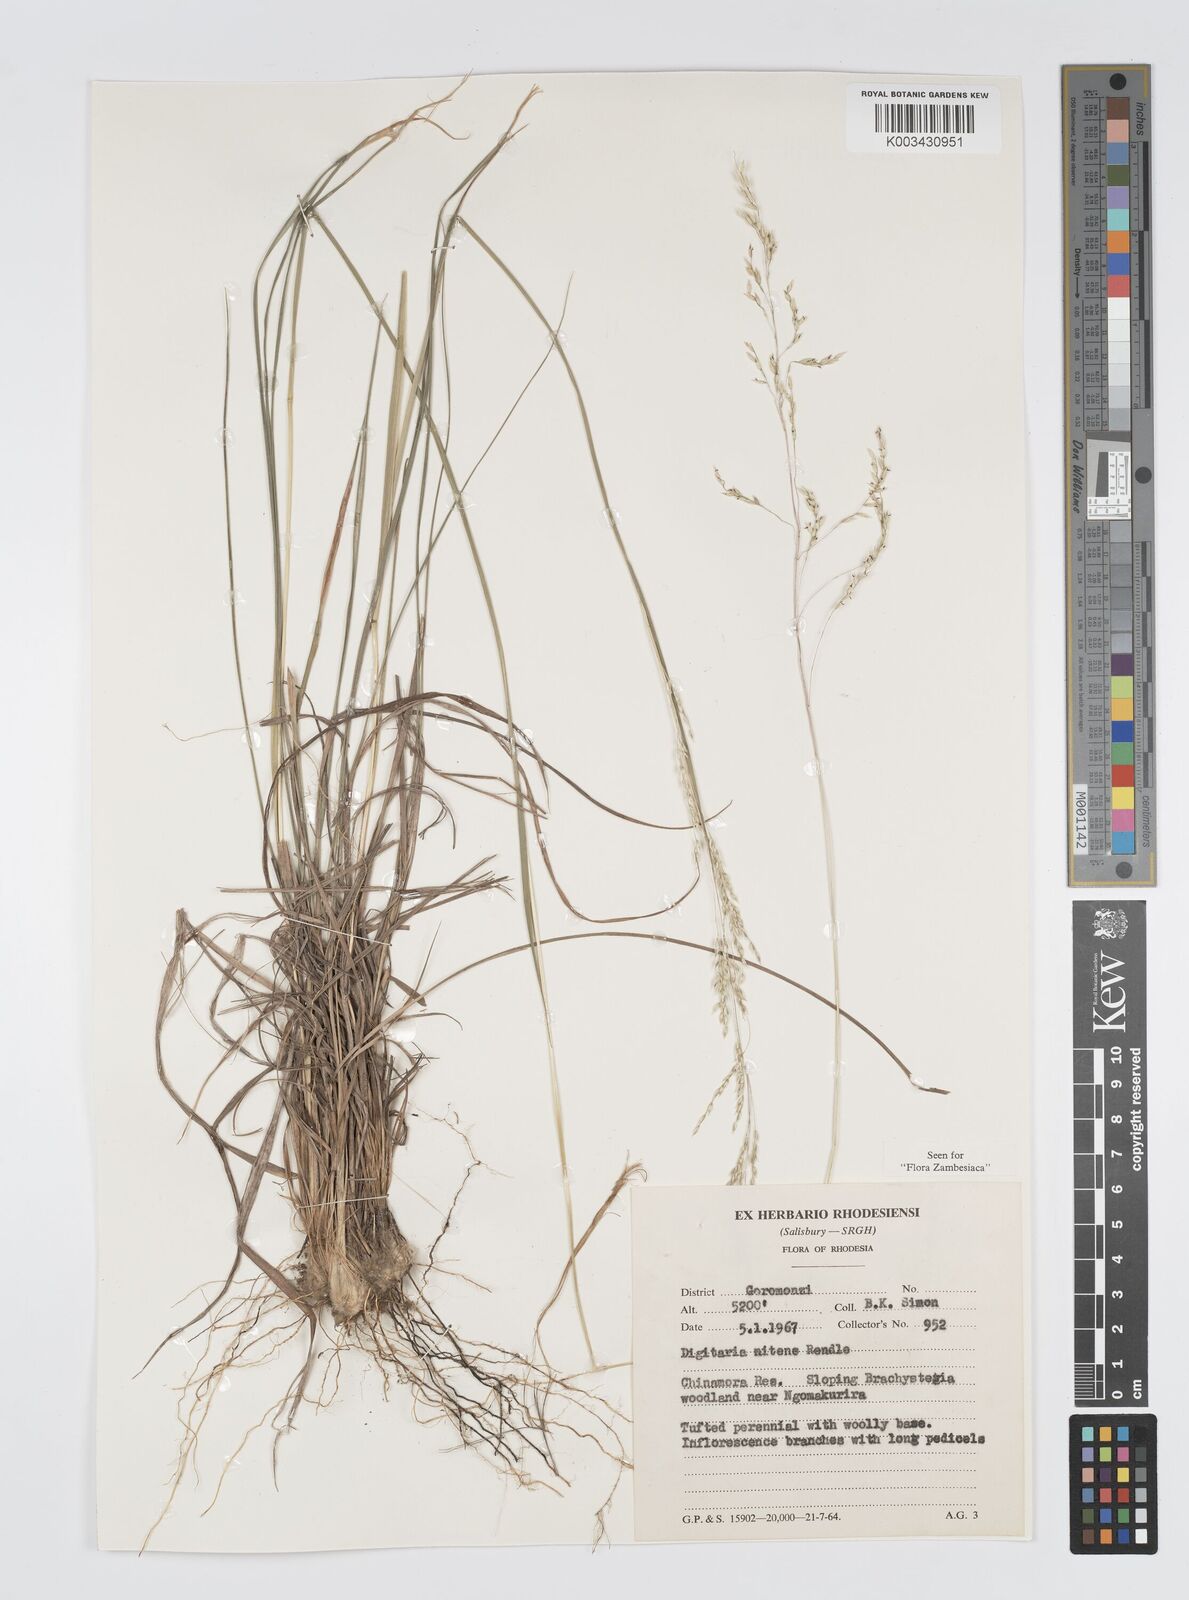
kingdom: Plantae
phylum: Tracheophyta
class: Liliopsida
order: Poales
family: Poaceae
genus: Digitaria
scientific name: Digitaria flaccida
